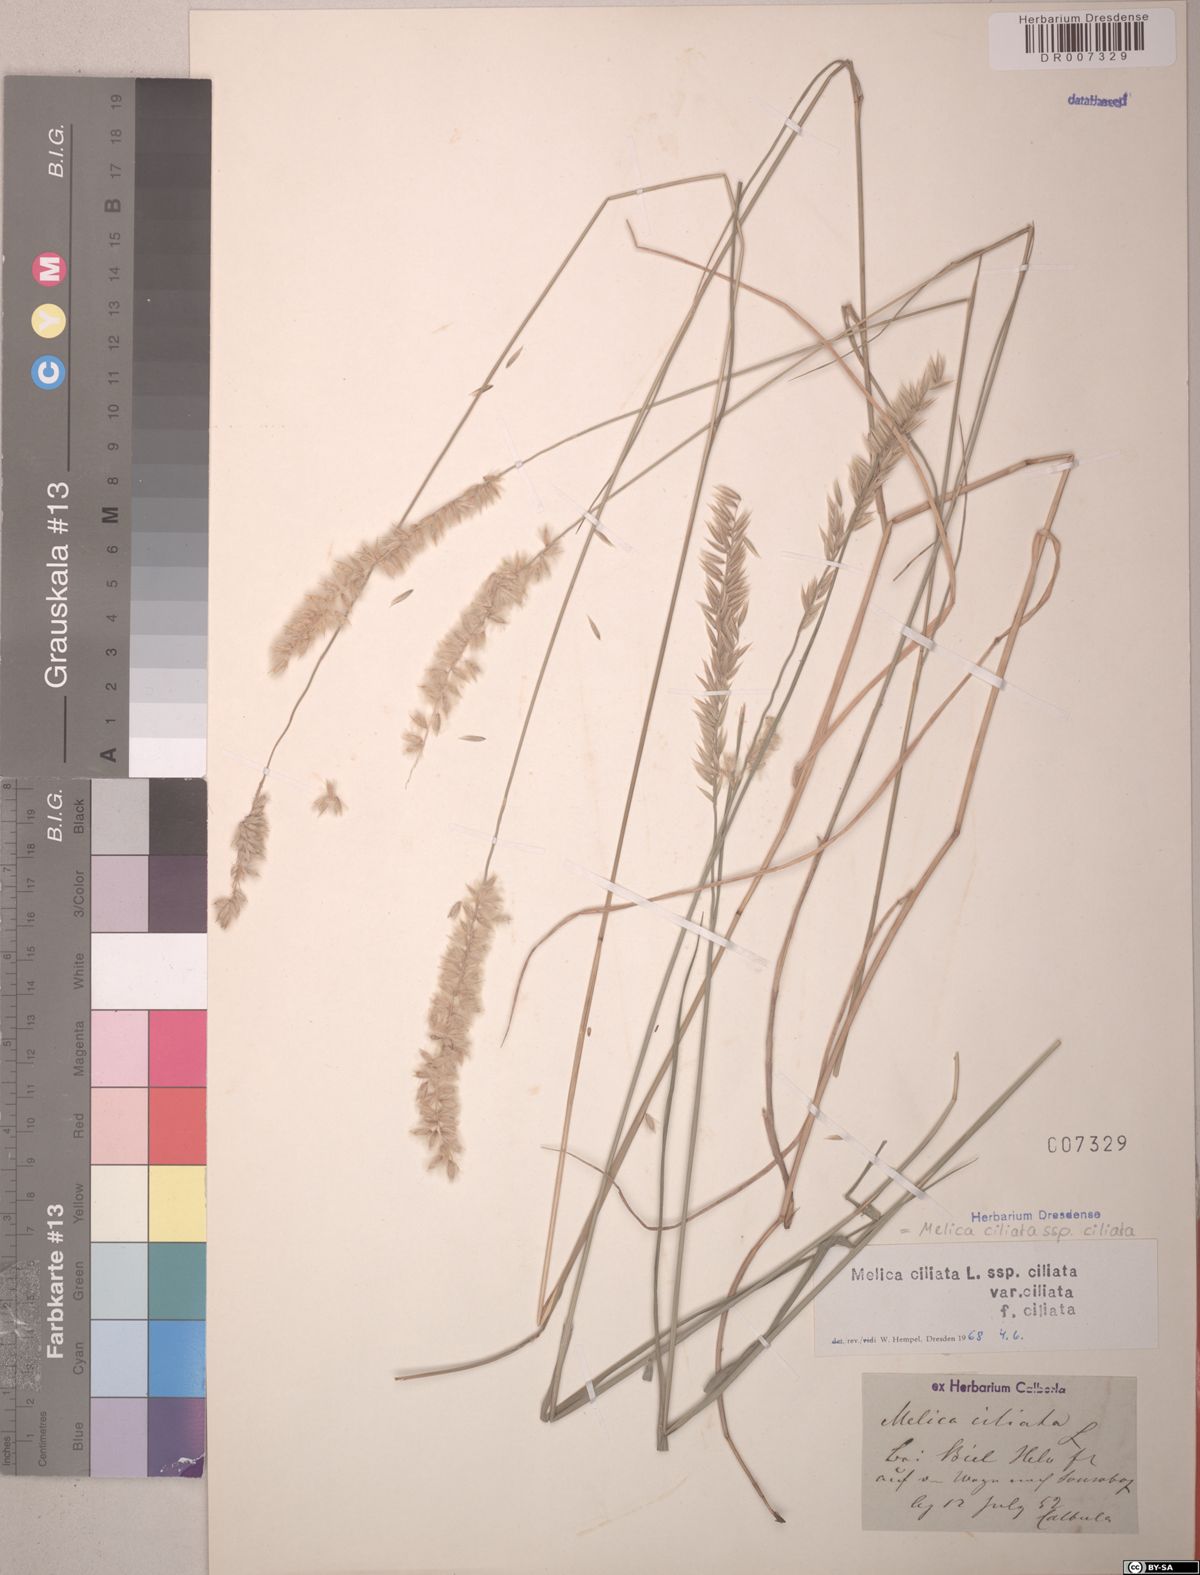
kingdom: Plantae
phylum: Tracheophyta
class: Liliopsida
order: Poales
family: Poaceae
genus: Melica
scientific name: Melica ciliata
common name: Hairy melicgrass
